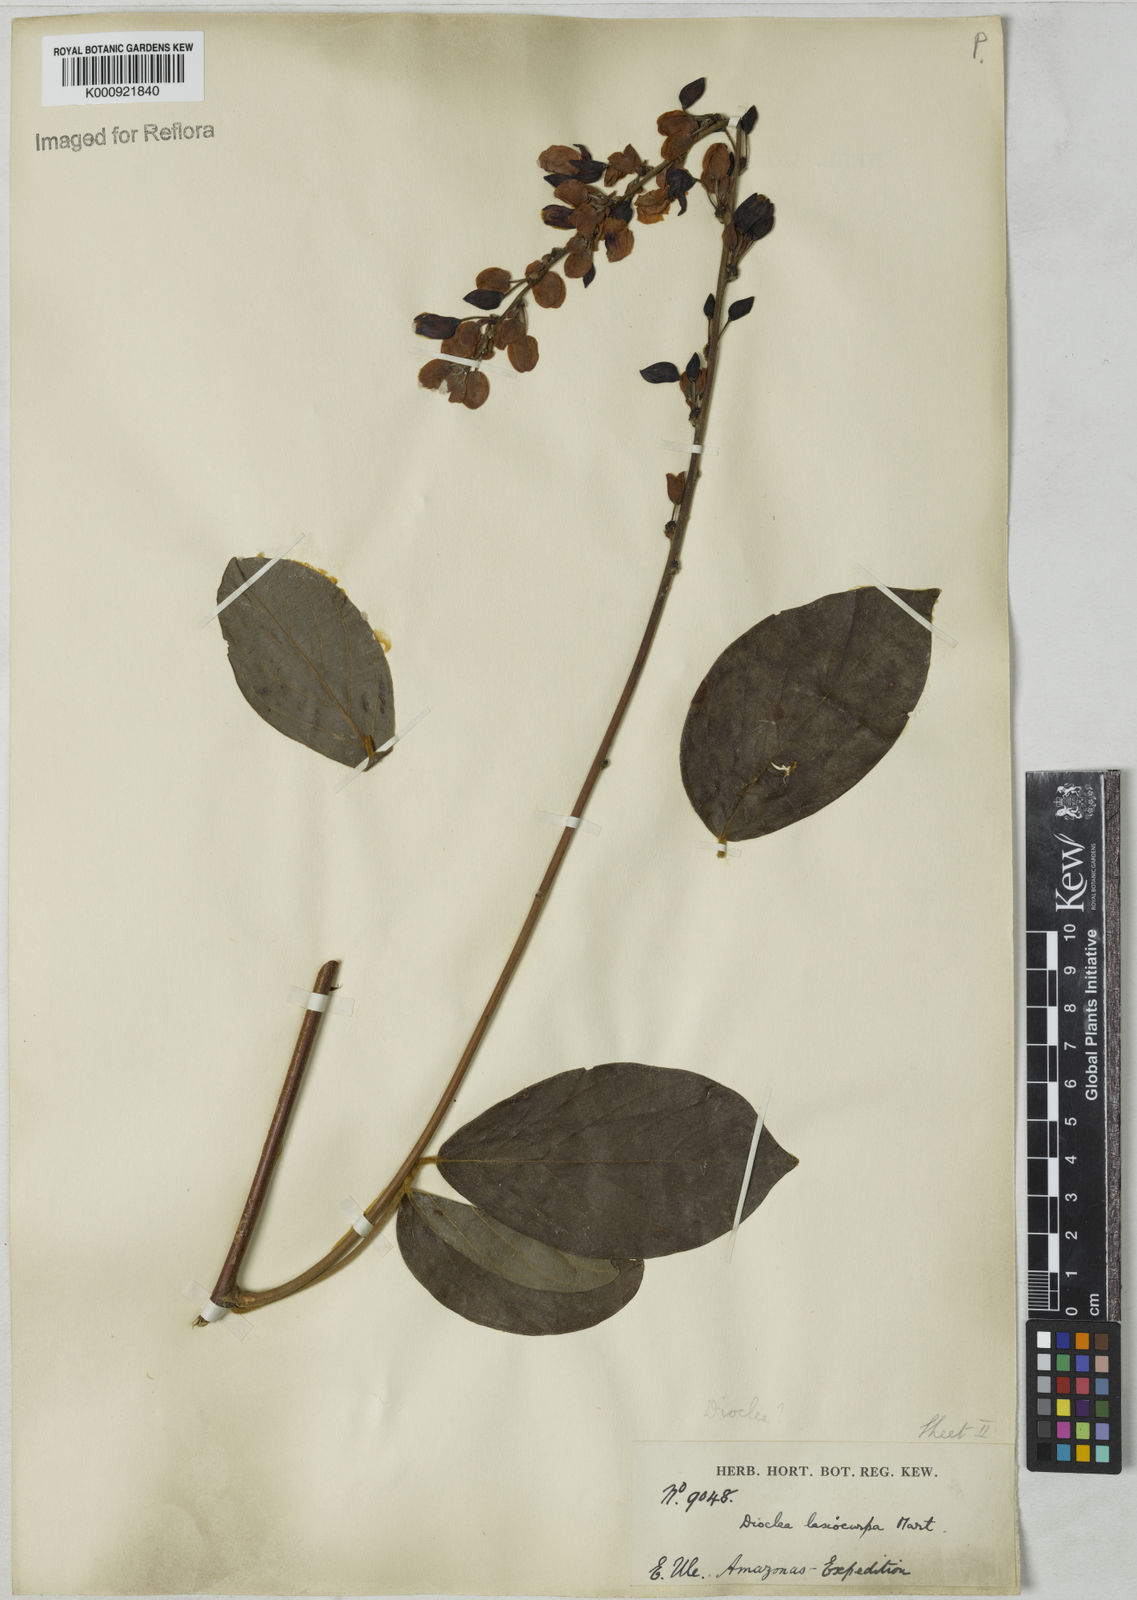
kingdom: Plantae
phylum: Tracheophyta
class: Magnoliopsida
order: Fabales
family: Fabaceae
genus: Dioclea
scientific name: Dioclea virgata
